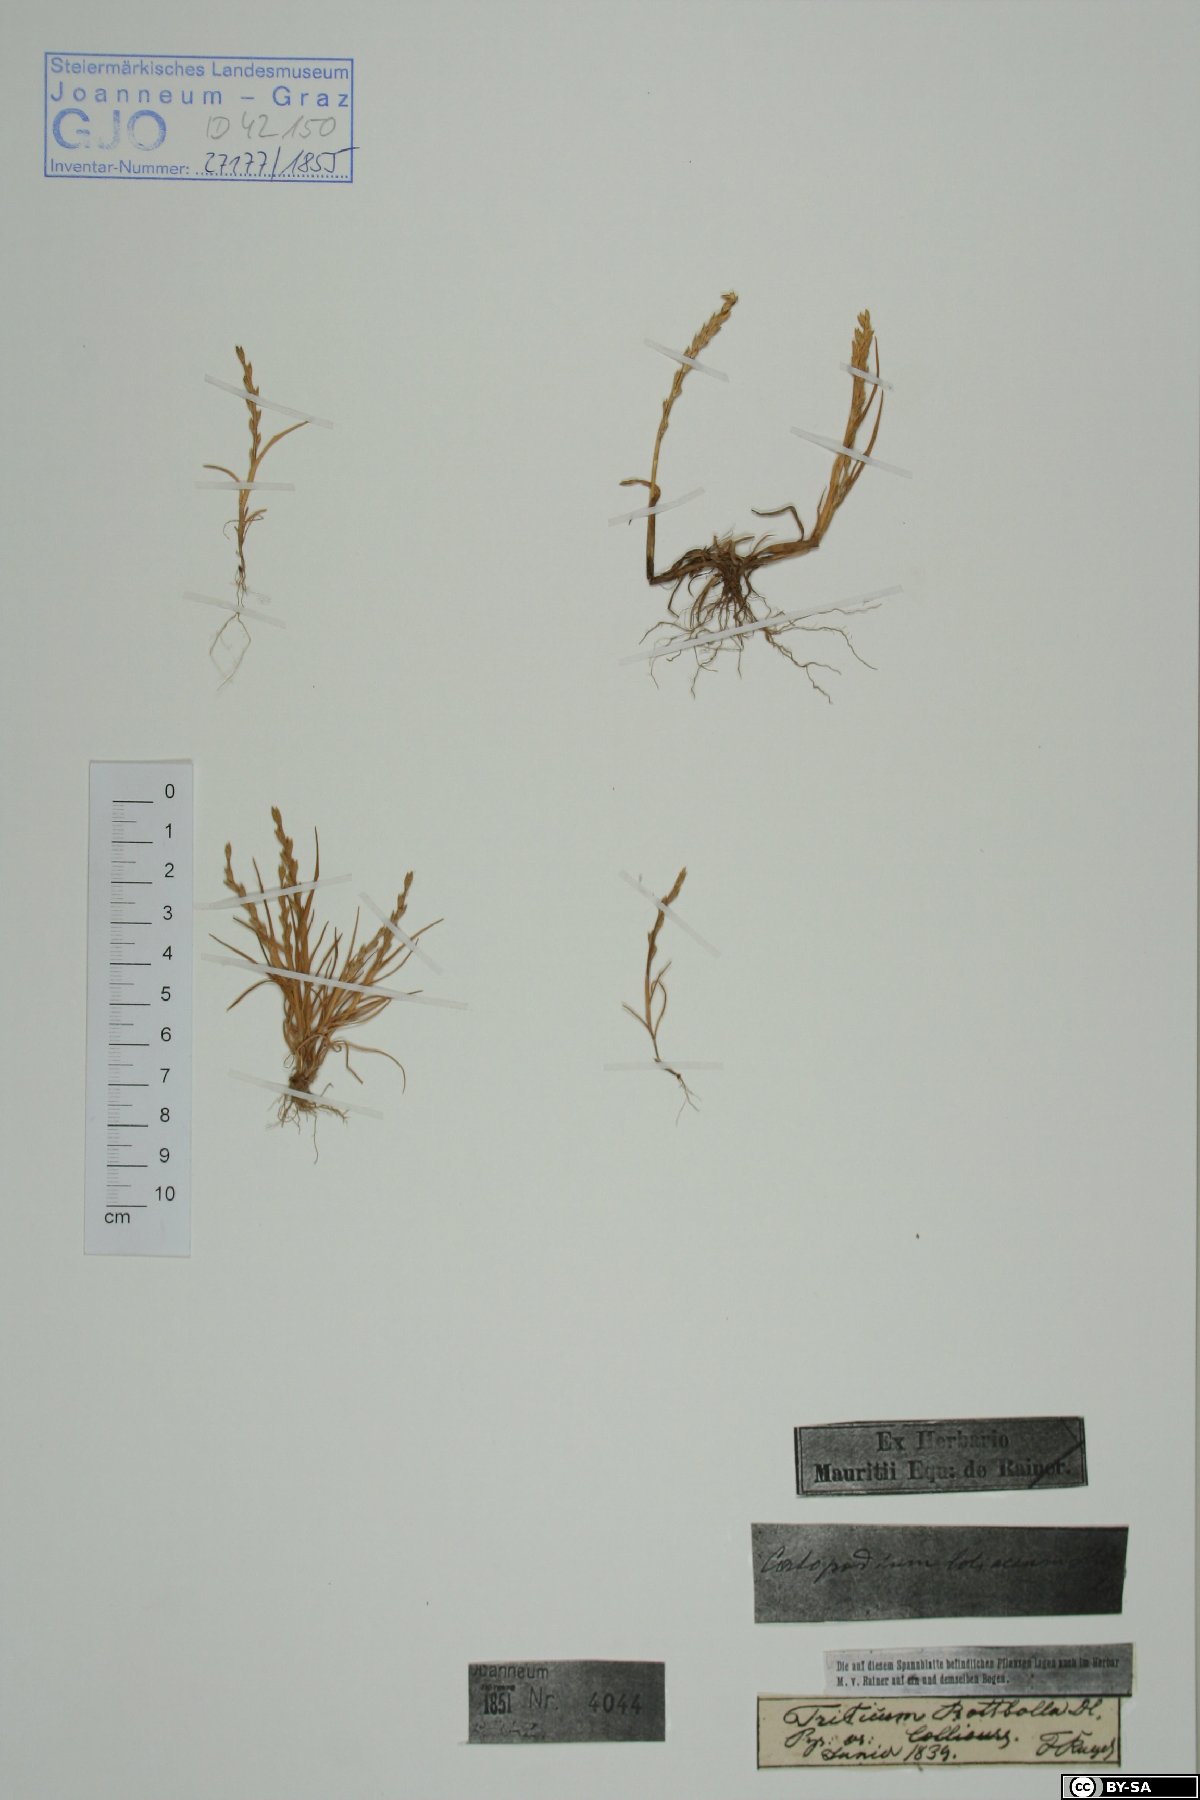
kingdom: Plantae
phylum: Tracheophyta
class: Liliopsida
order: Poales
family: Poaceae
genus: Catapodium
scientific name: Catapodium marinum
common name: Sea fern-grass
